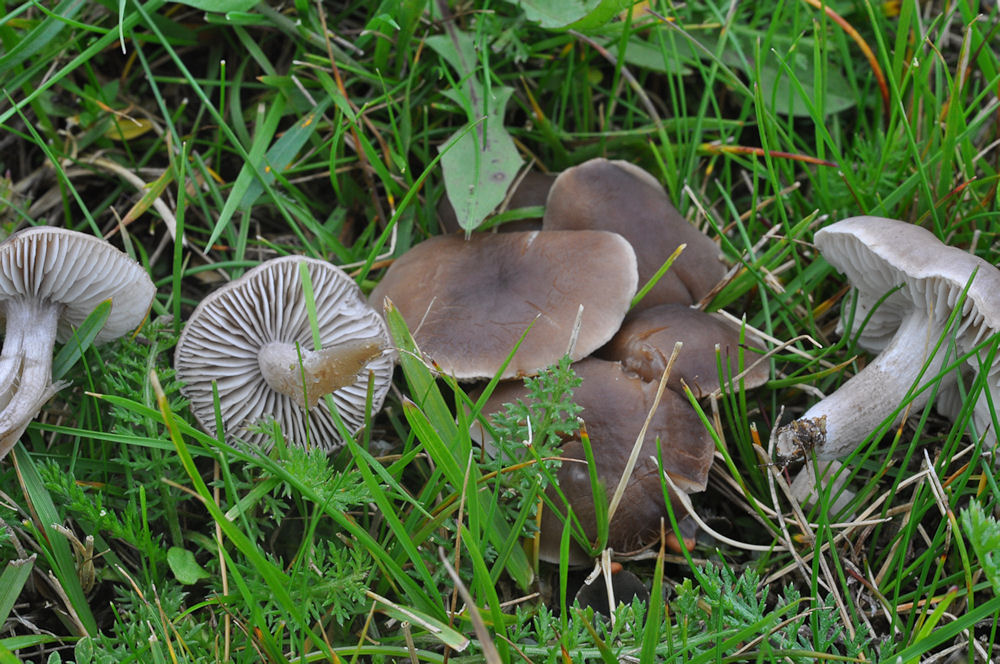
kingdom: Fungi
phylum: Basidiomycota
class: Agaricomycetes
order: Agaricales
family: Tricholomataceae
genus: Dermoloma
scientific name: Dermoloma cuneifolium
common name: eng-nonnehat
